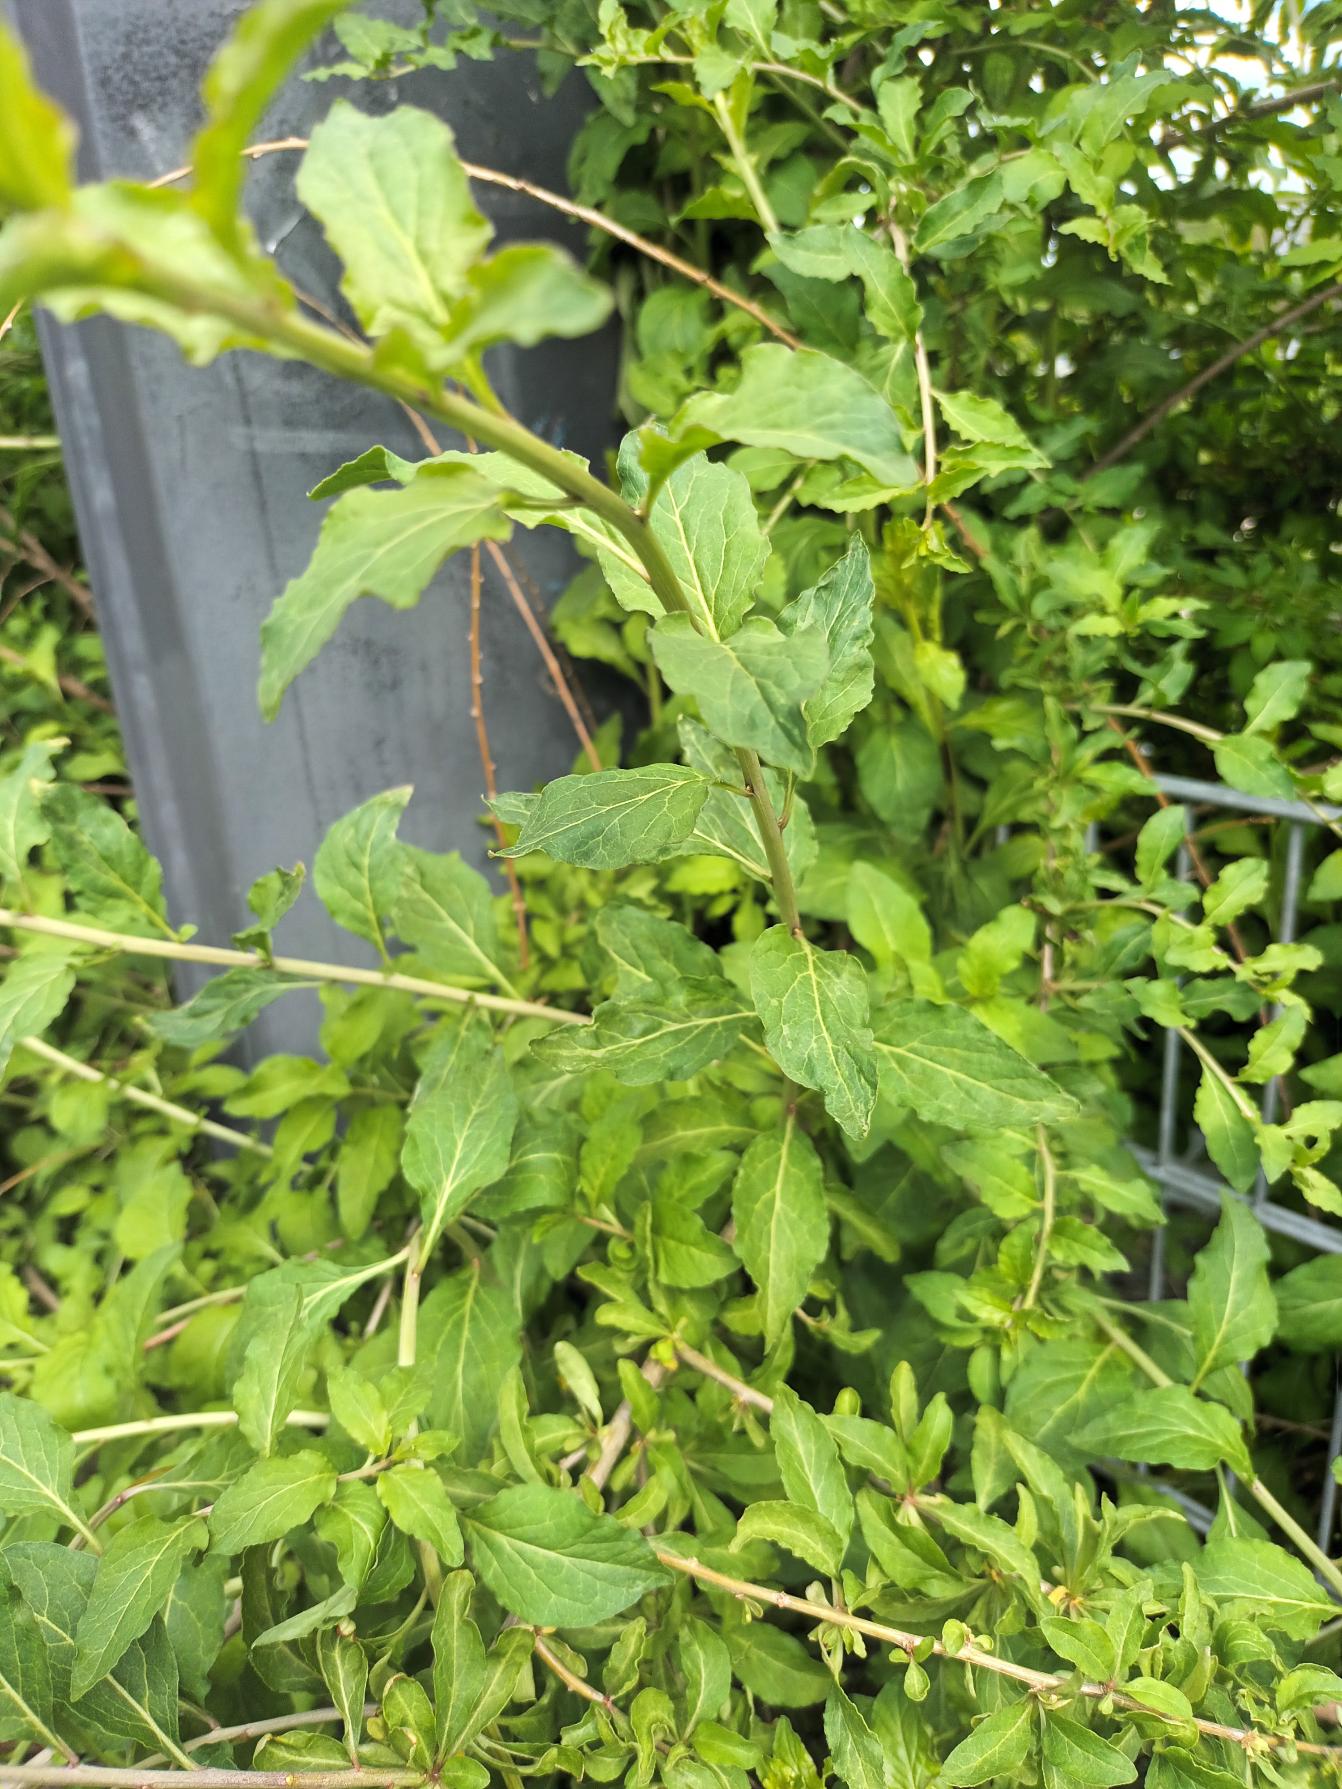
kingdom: Plantae
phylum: Tracheophyta
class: Magnoliopsida
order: Solanales
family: Solanaceae
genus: Lycium
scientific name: Lycium chinense
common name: Bredbladet bukketorn
